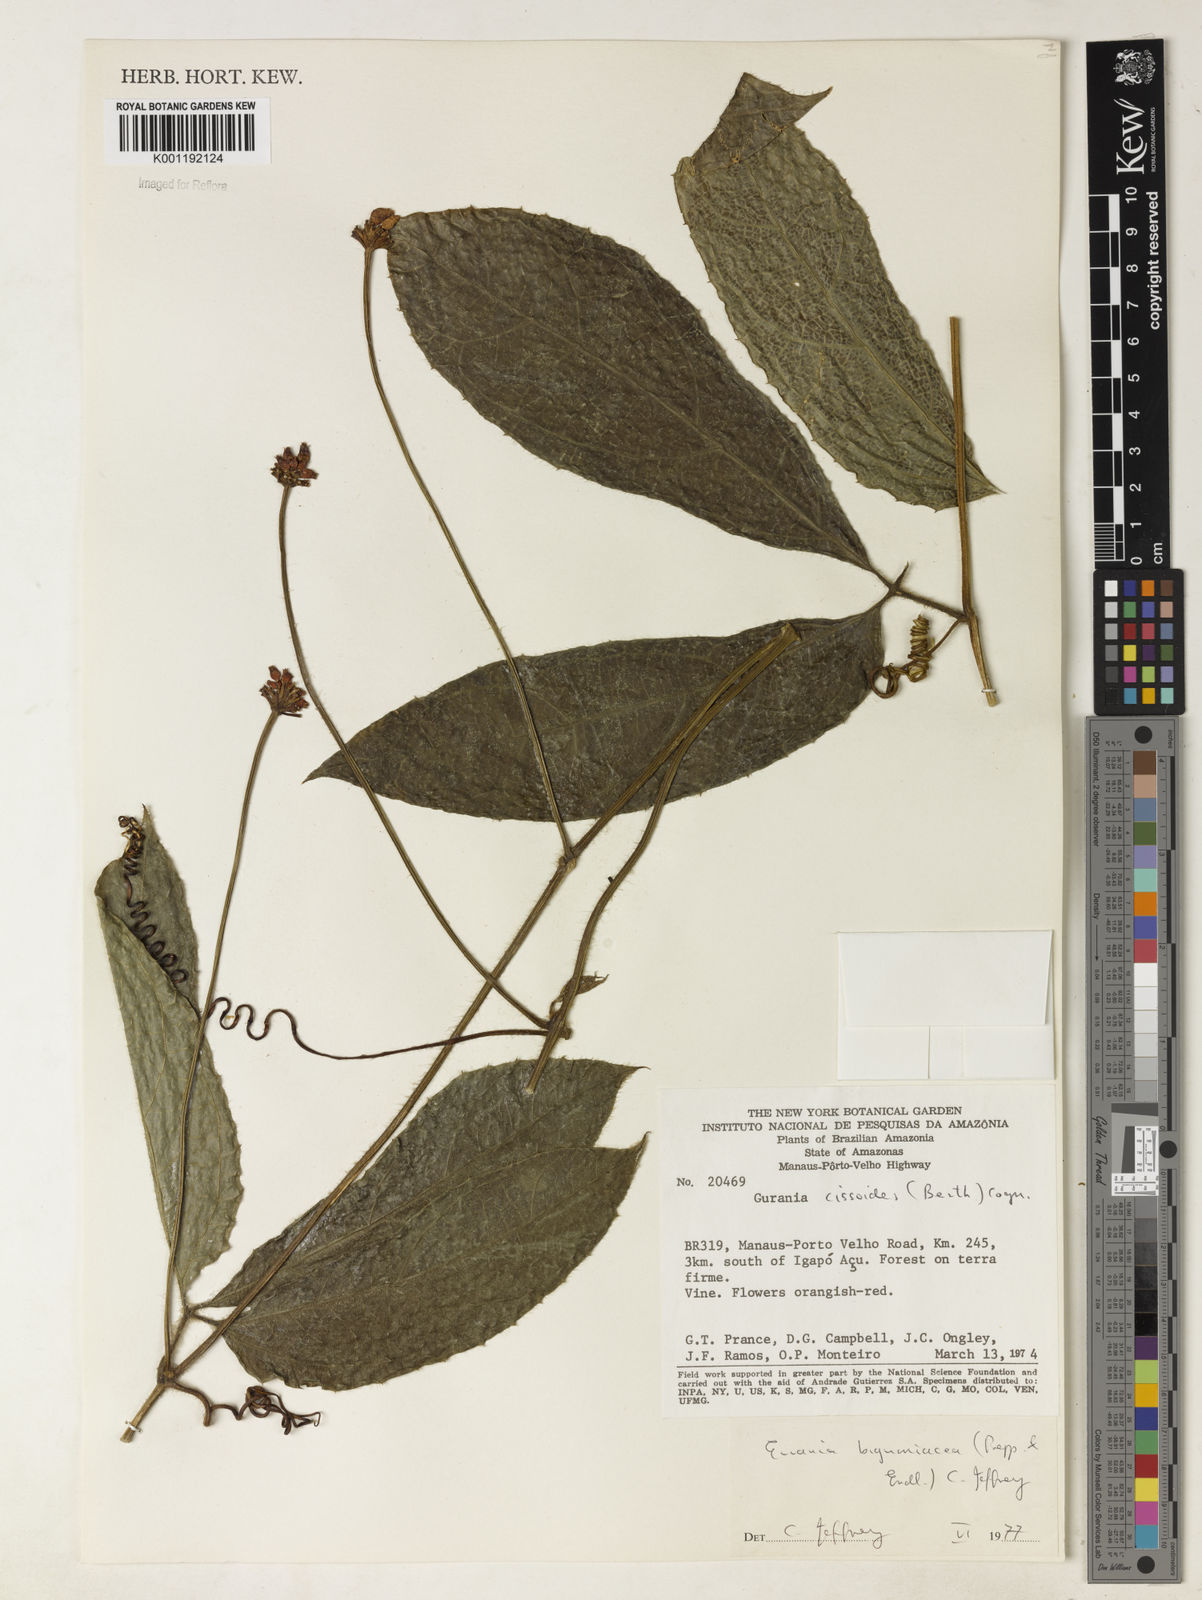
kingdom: Plantae
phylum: Tracheophyta
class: Magnoliopsida
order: Cucurbitales
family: Cucurbitaceae
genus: Gurania
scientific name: Gurania bignoniacea
